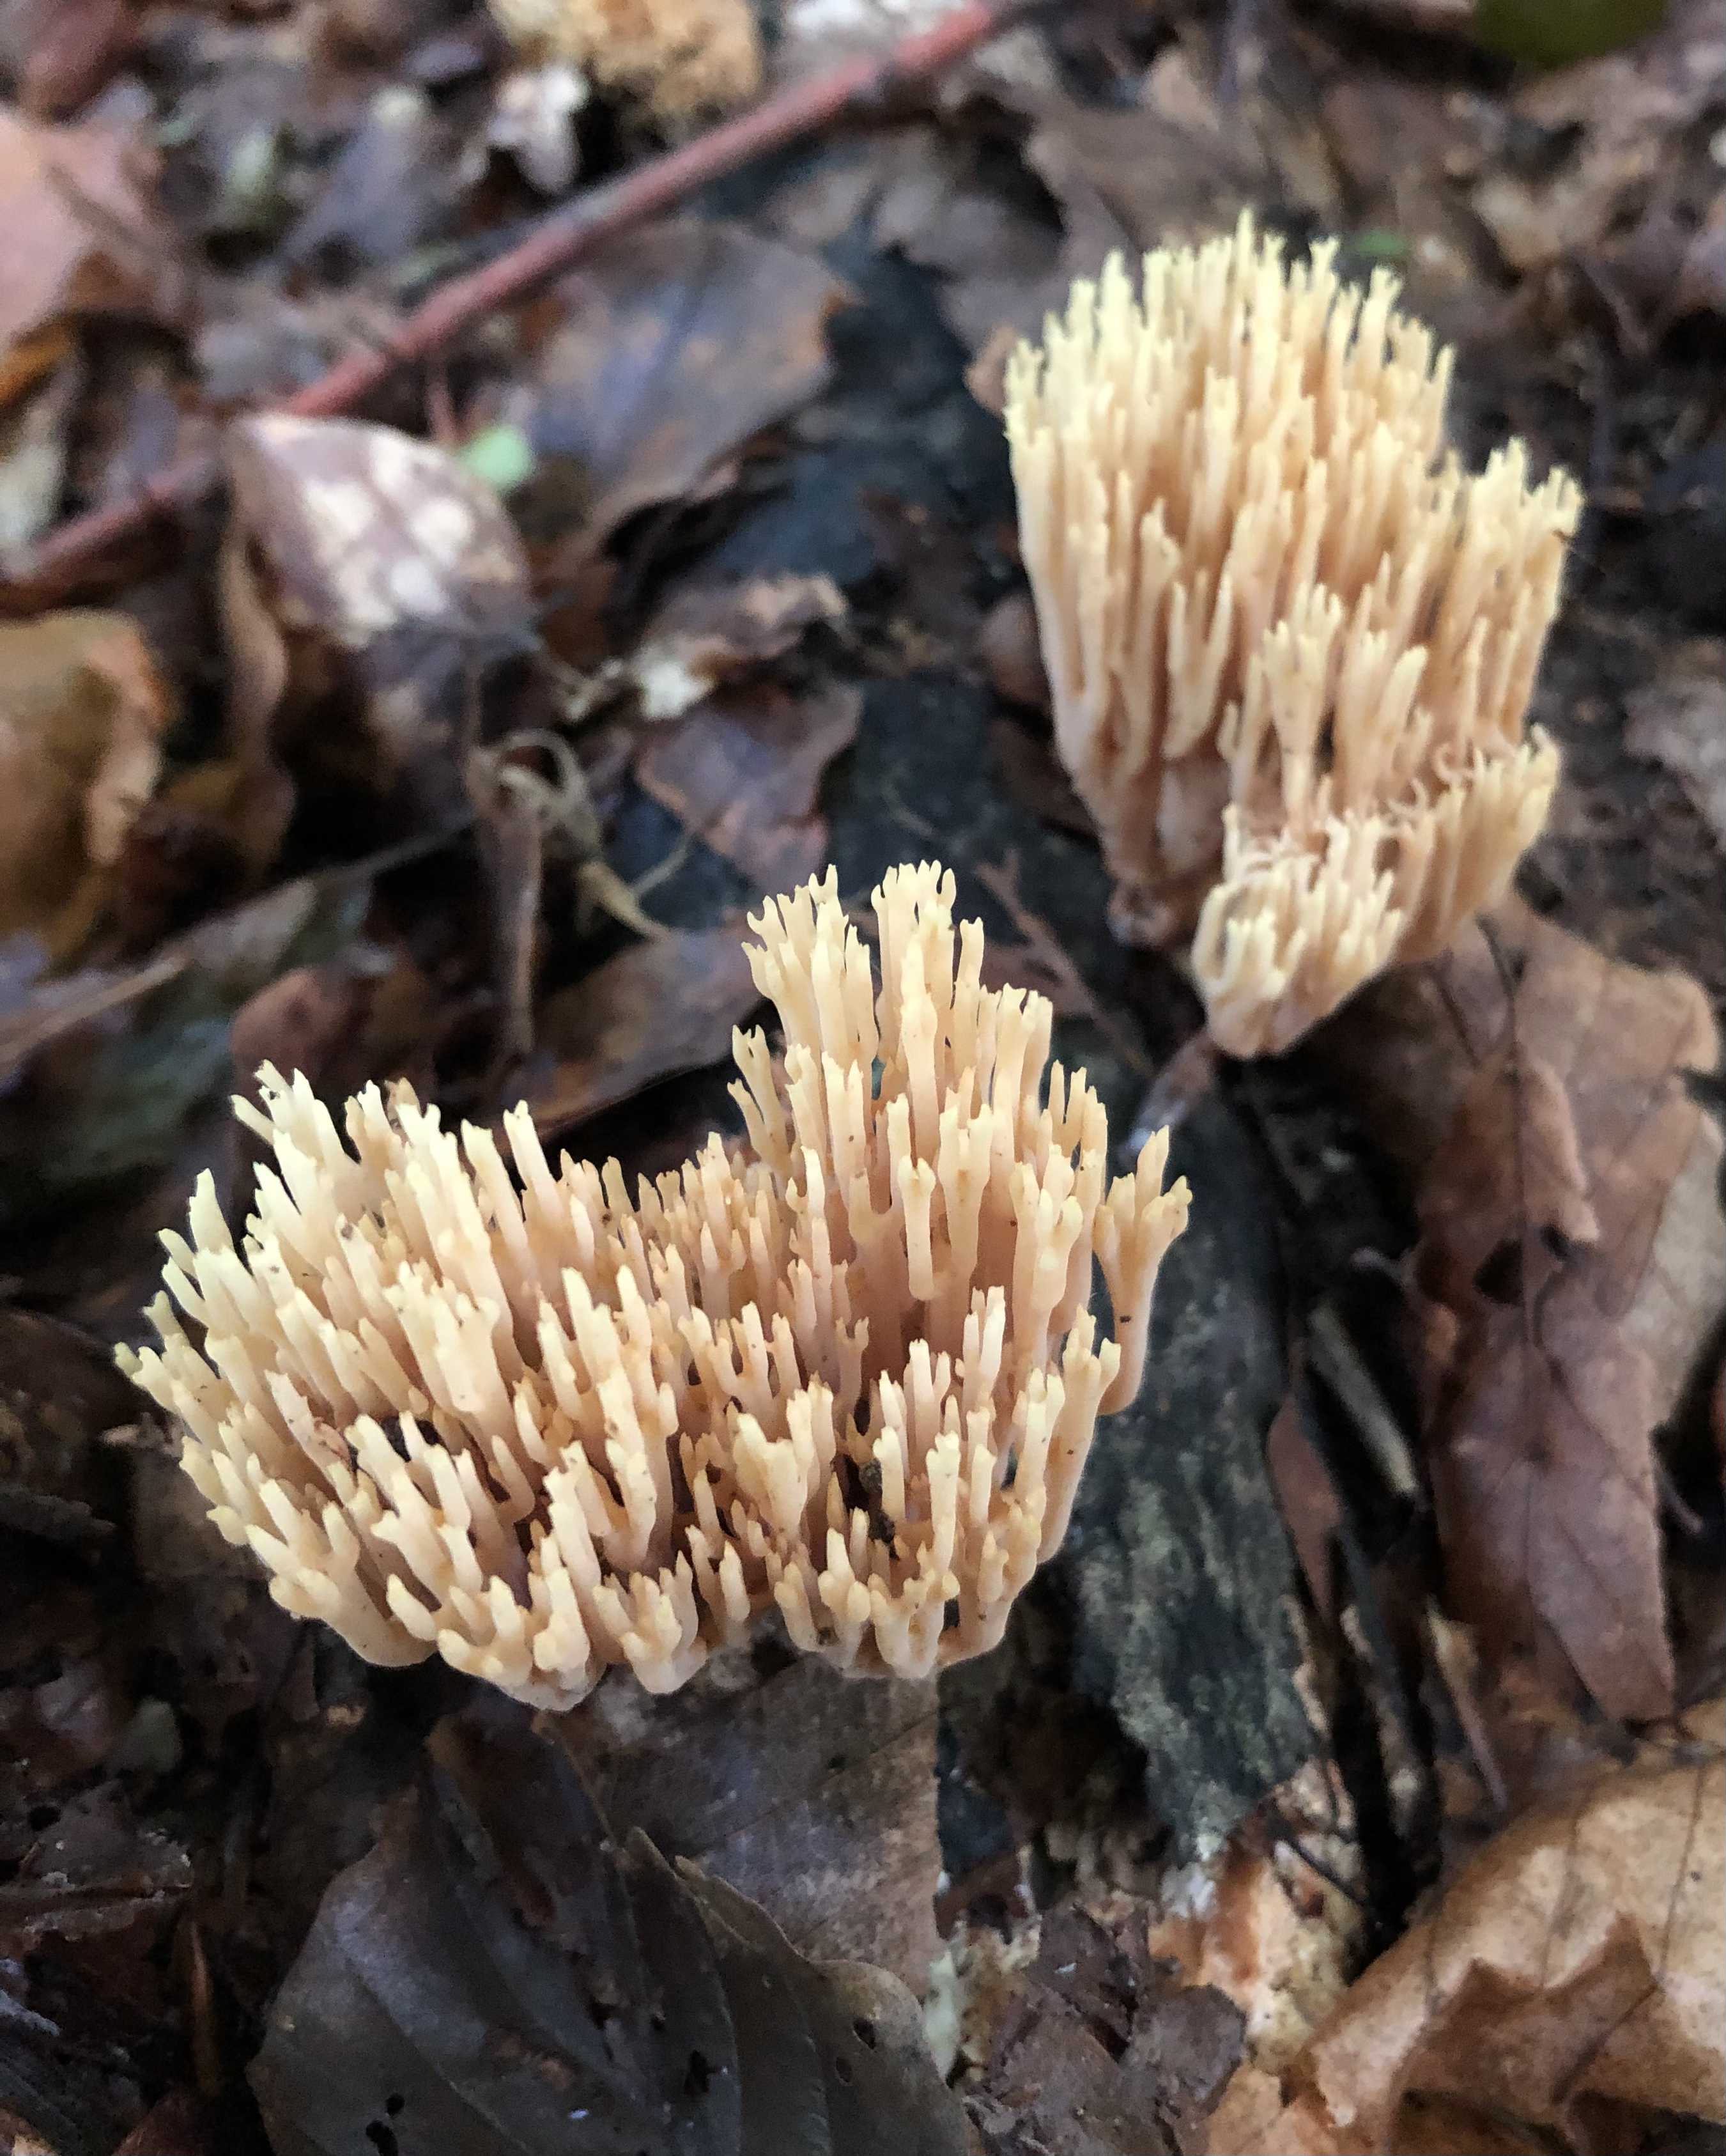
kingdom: Fungi
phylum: Basidiomycota
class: Agaricomycetes
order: Gomphales
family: Gomphaceae
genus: Ramaria
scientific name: Ramaria stricta
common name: rank koralsvamp
